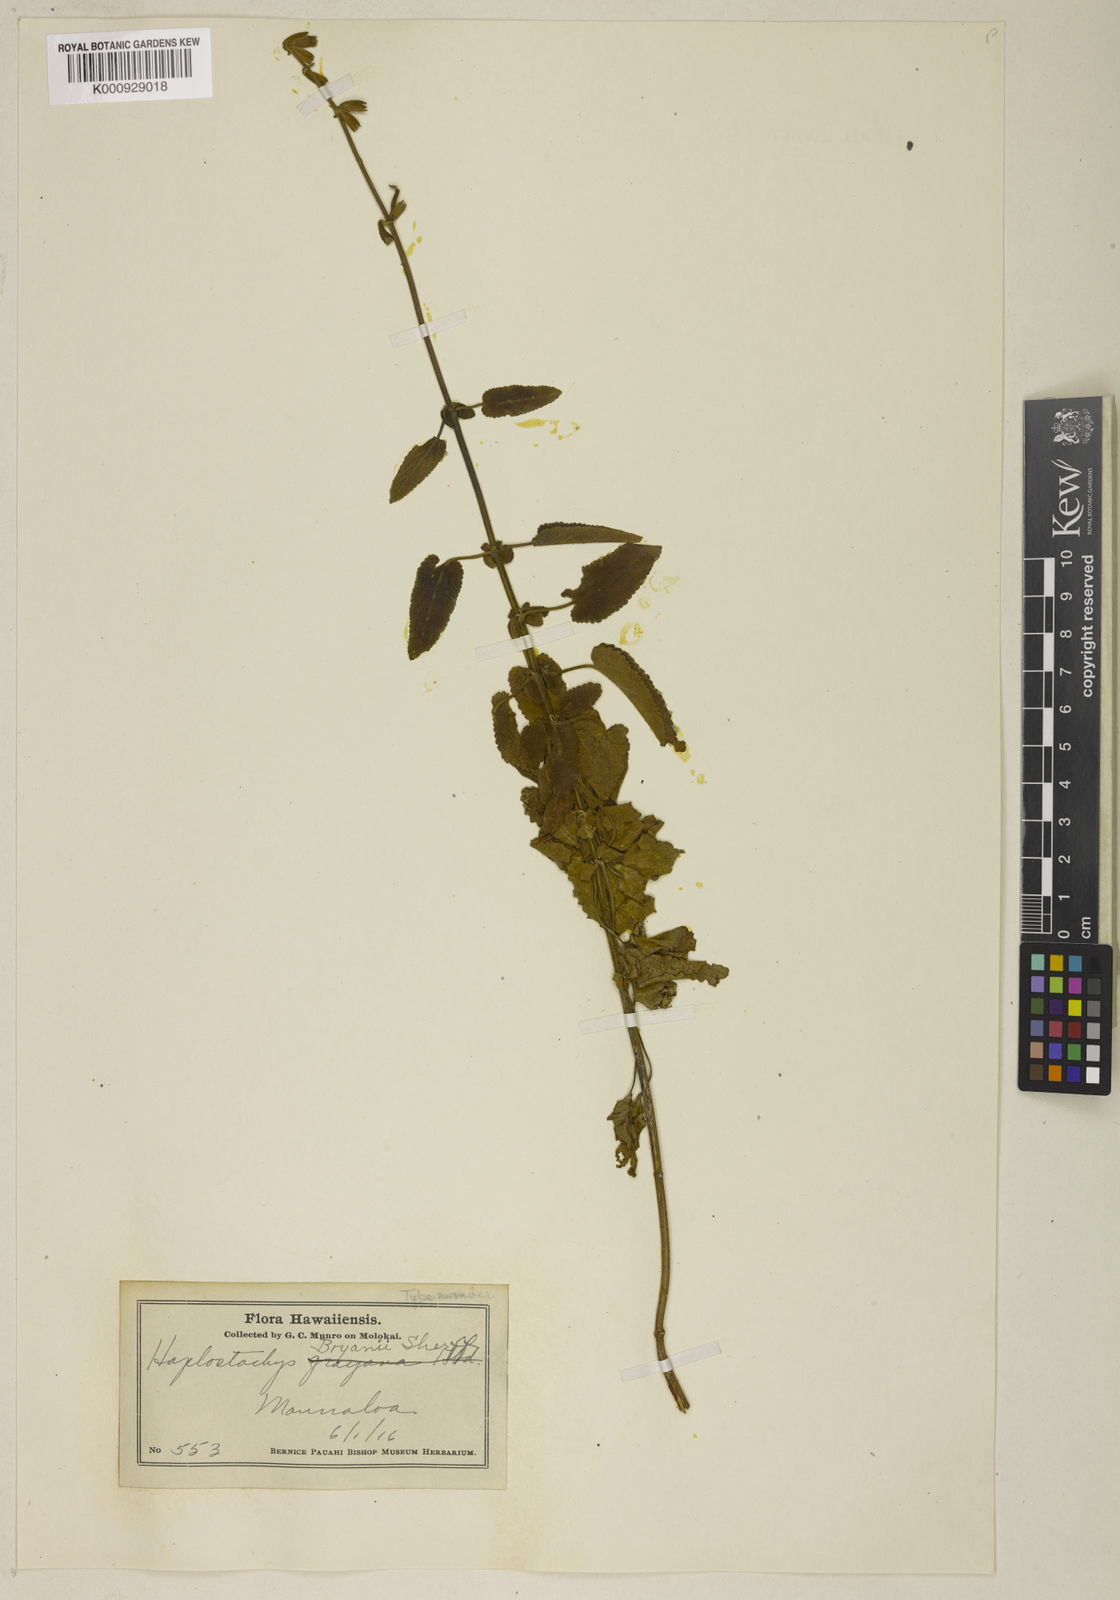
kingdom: Plantae
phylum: Tracheophyta
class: Magnoliopsida
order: Lamiales
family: Lamiaceae
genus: Haplostachys
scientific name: Haplostachys bryanii
